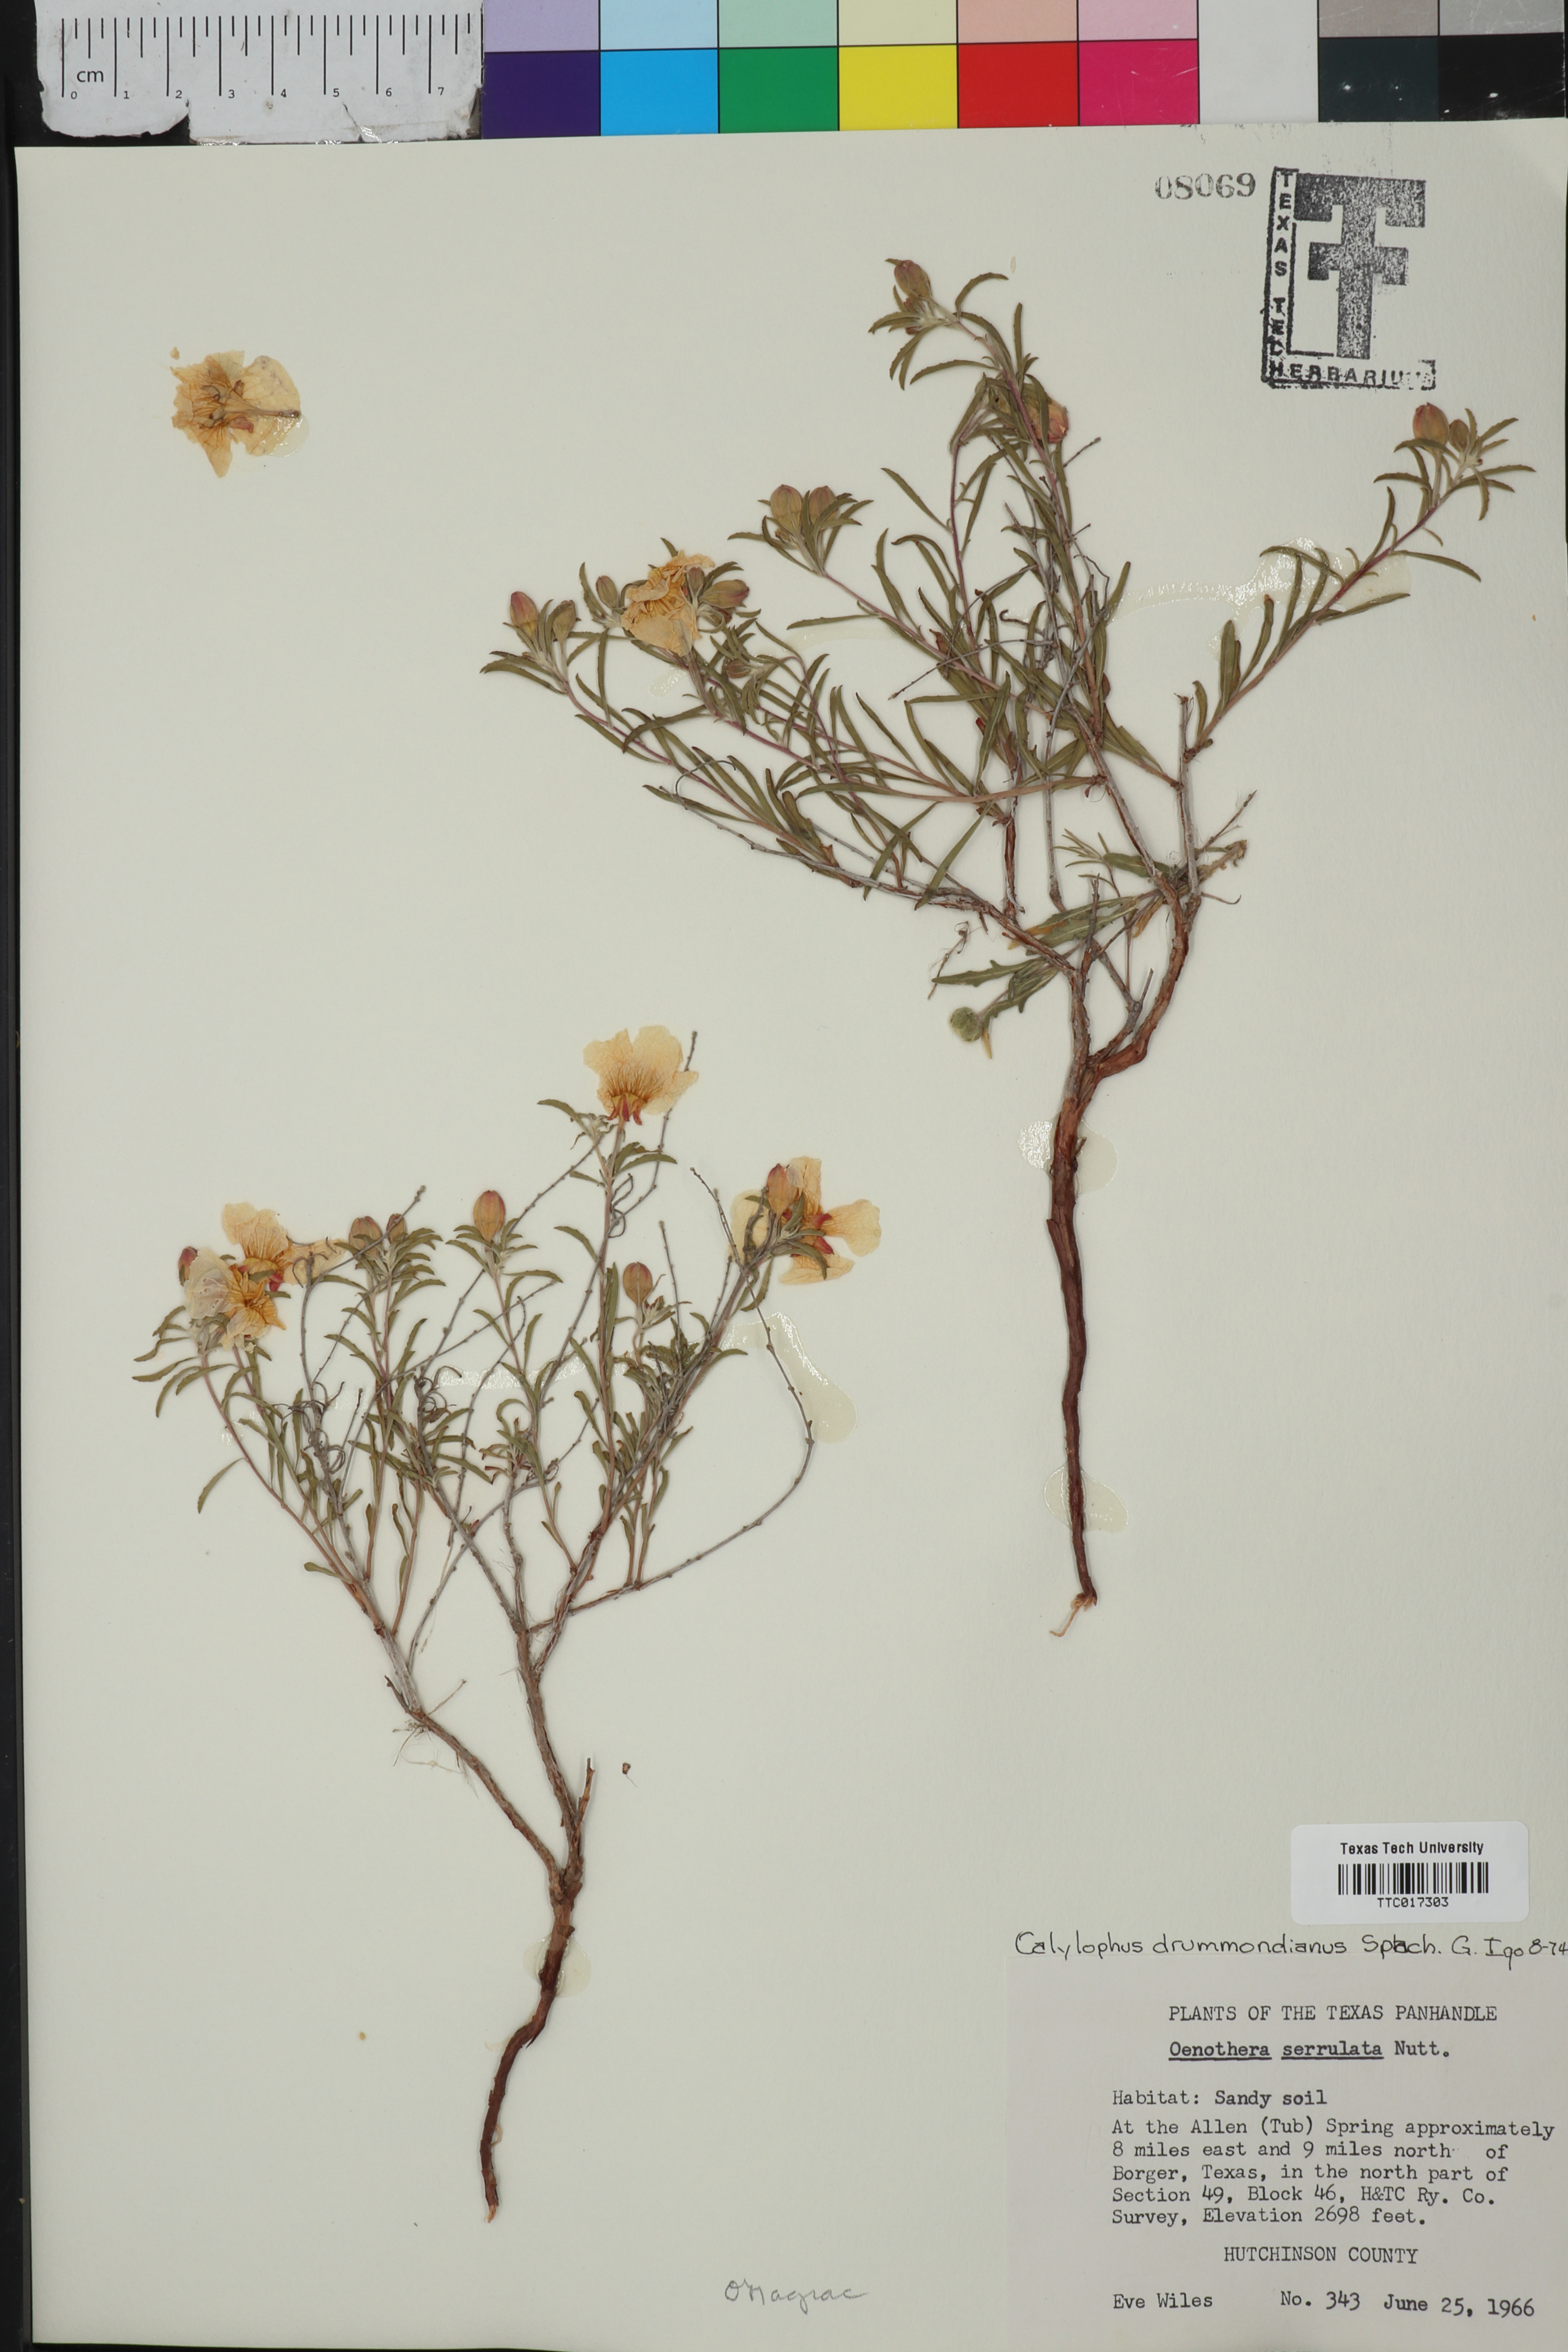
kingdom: Plantae
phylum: Tracheophyta
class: Magnoliopsida
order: Myrtales
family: Onagraceae
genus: Oenothera
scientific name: Oenothera serrulata
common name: Half-shrub calylophus
